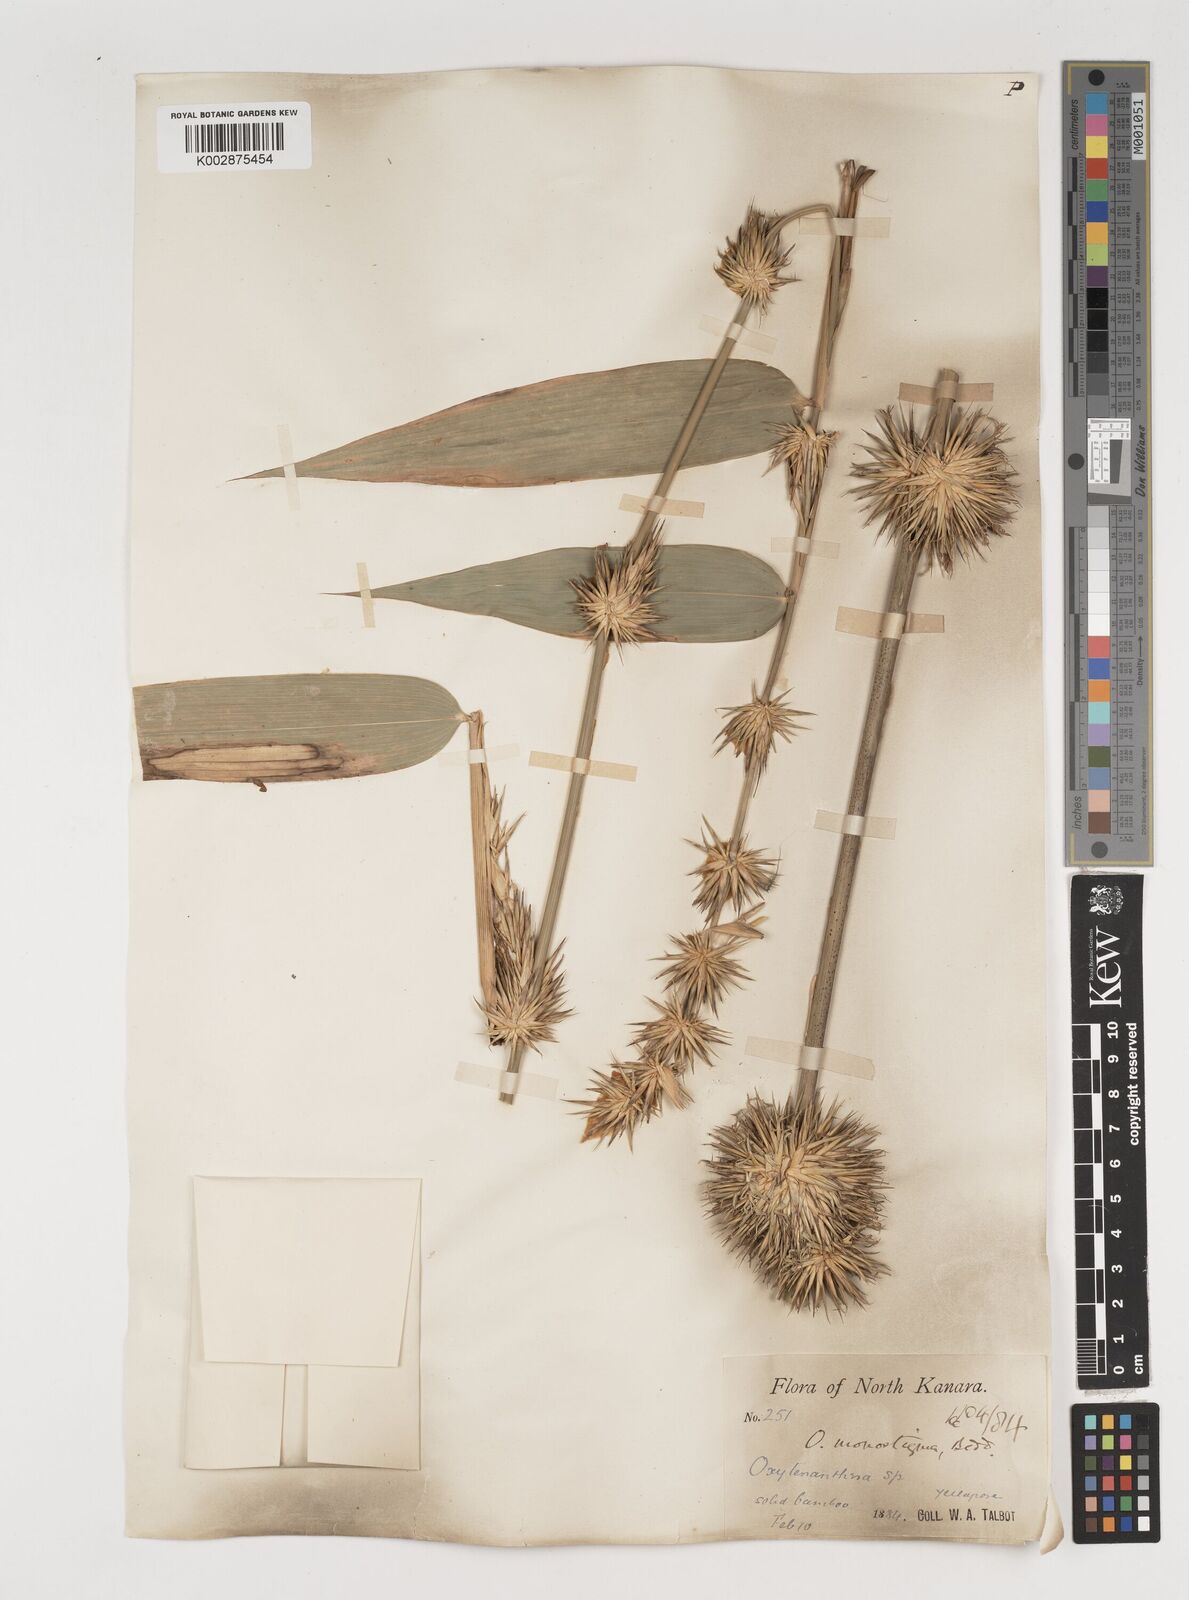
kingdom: Plantae
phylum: Tracheophyta
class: Liliopsida
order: Poales
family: Poaceae
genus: Pseudoxytenanthera
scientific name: Pseudoxytenanthera monadelpha
